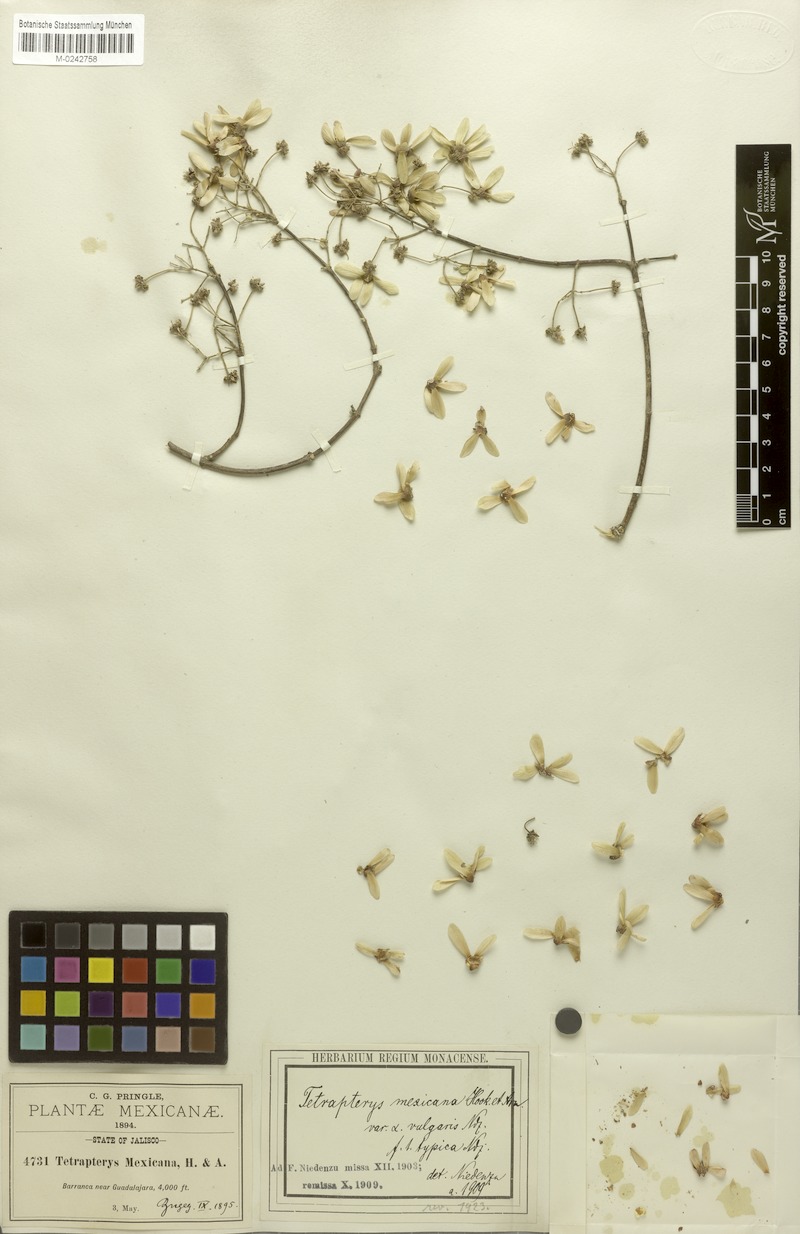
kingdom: Plantae
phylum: Tracheophyta
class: Magnoliopsida
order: Malpighiales
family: Malpighiaceae
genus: Tetrapterys
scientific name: Tetrapterys mexicana
